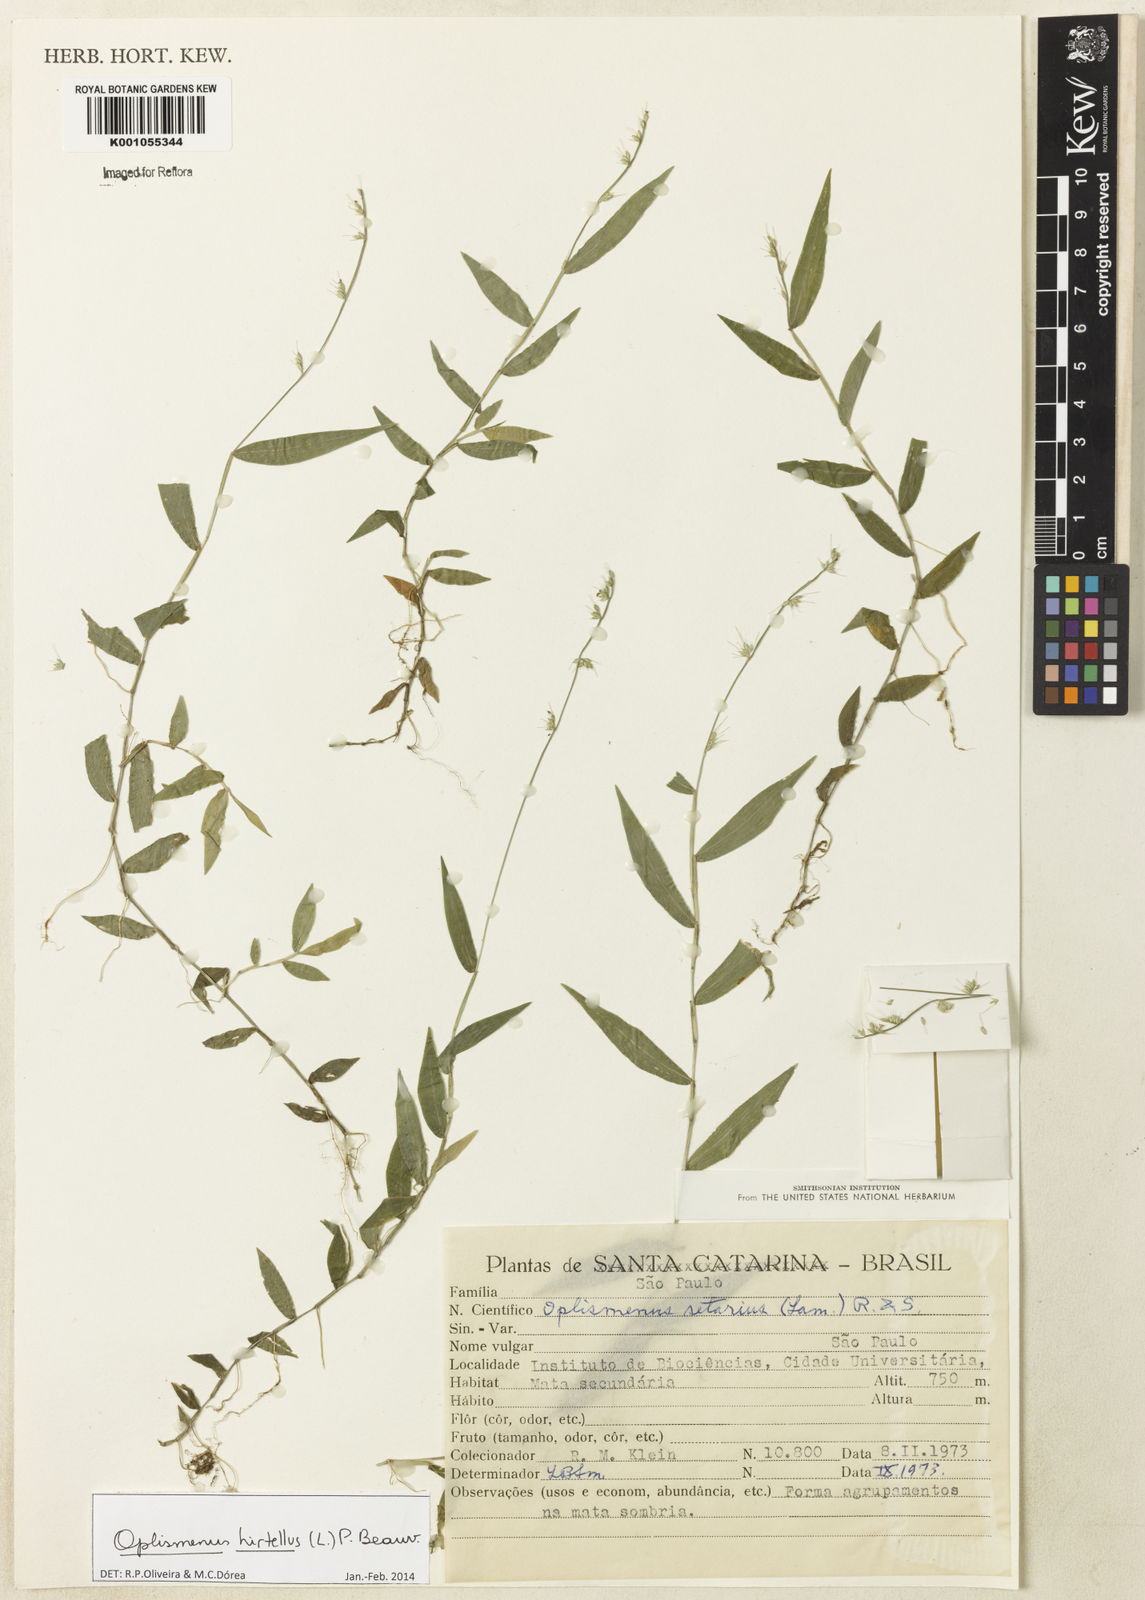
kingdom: Plantae
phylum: Tracheophyta
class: Liliopsida
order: Poales
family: Poaceae
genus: Oplismenus
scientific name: Oplismenus hirtellus
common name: Basketgrass
